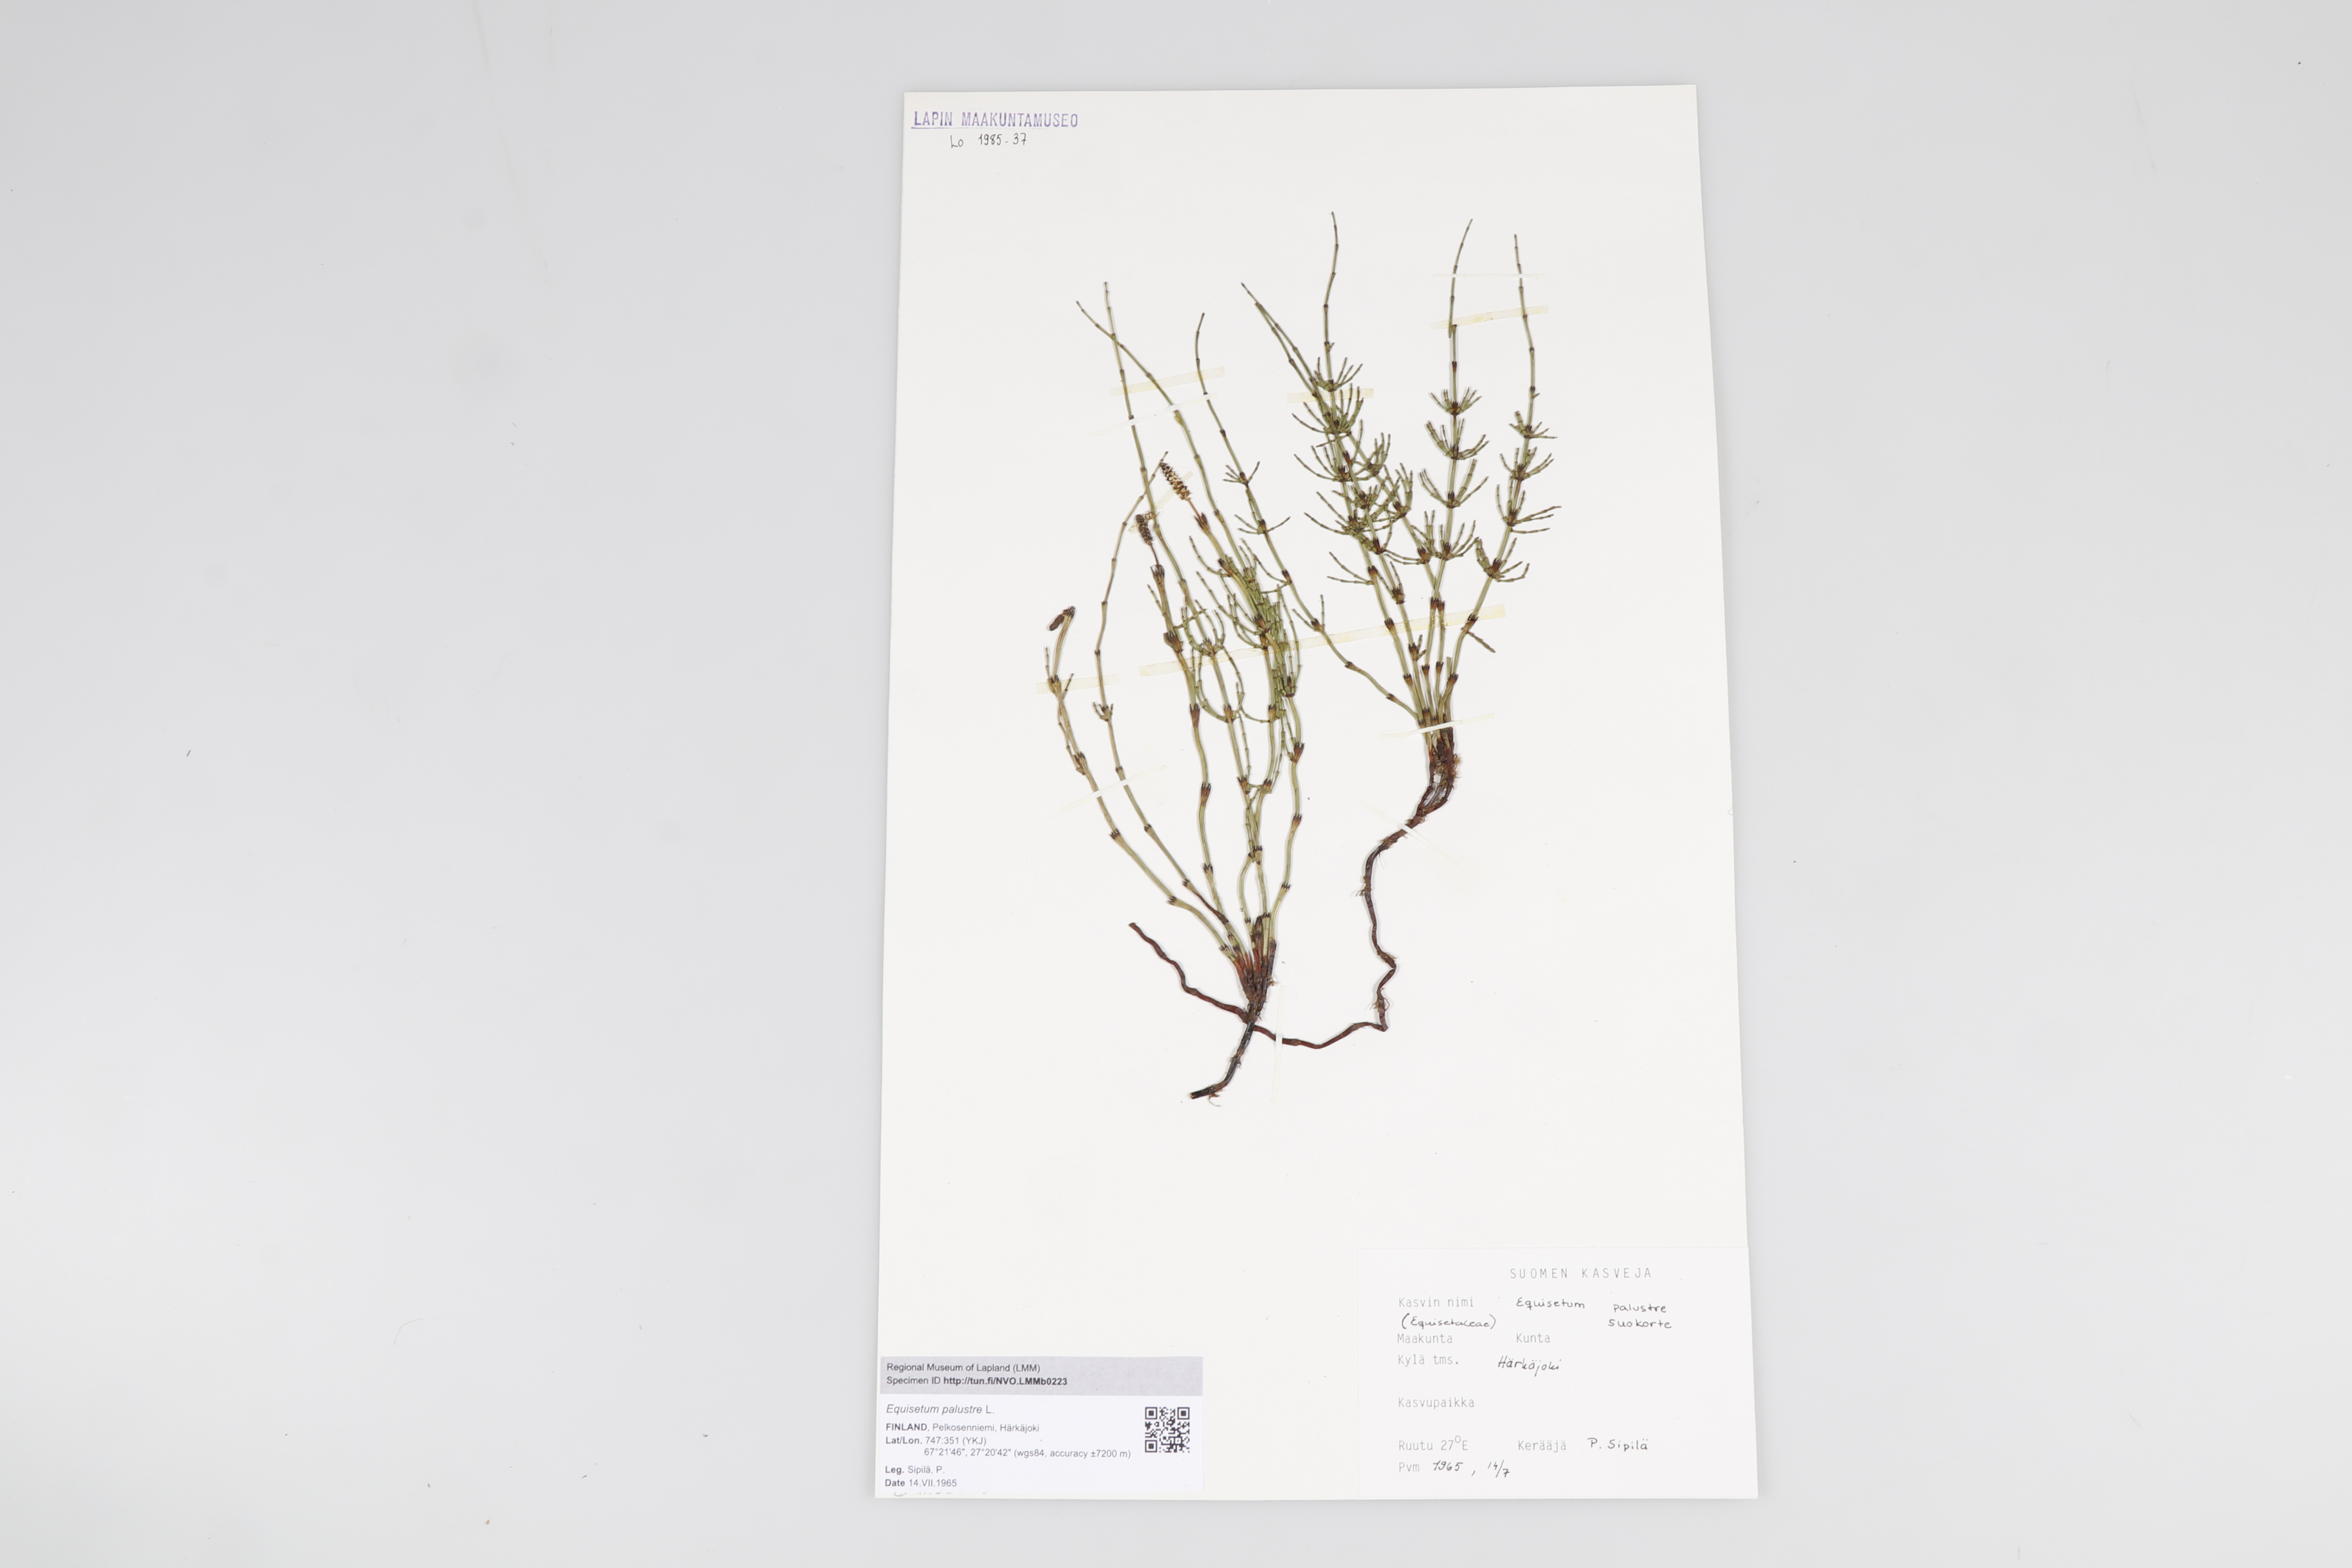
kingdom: Plantae
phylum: Tracheophyta
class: Polypodiopsida
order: Equisetales
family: Equisetaceae
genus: Equisetum
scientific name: Equisetum palustre
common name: Marsh horsetail
